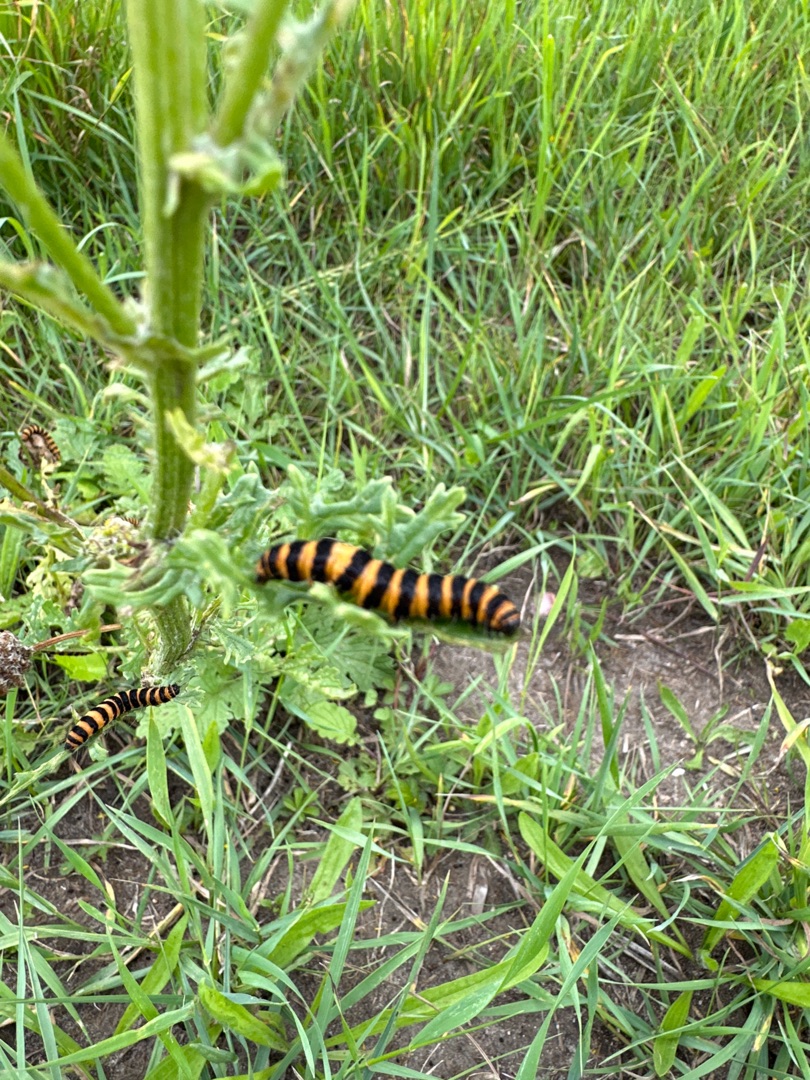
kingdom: Animalia
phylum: Arthropoda
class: Insecta
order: Lepidoptera
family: Erebidae
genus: Tyria
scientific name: Tyria jacobaeae
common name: Blodplet
